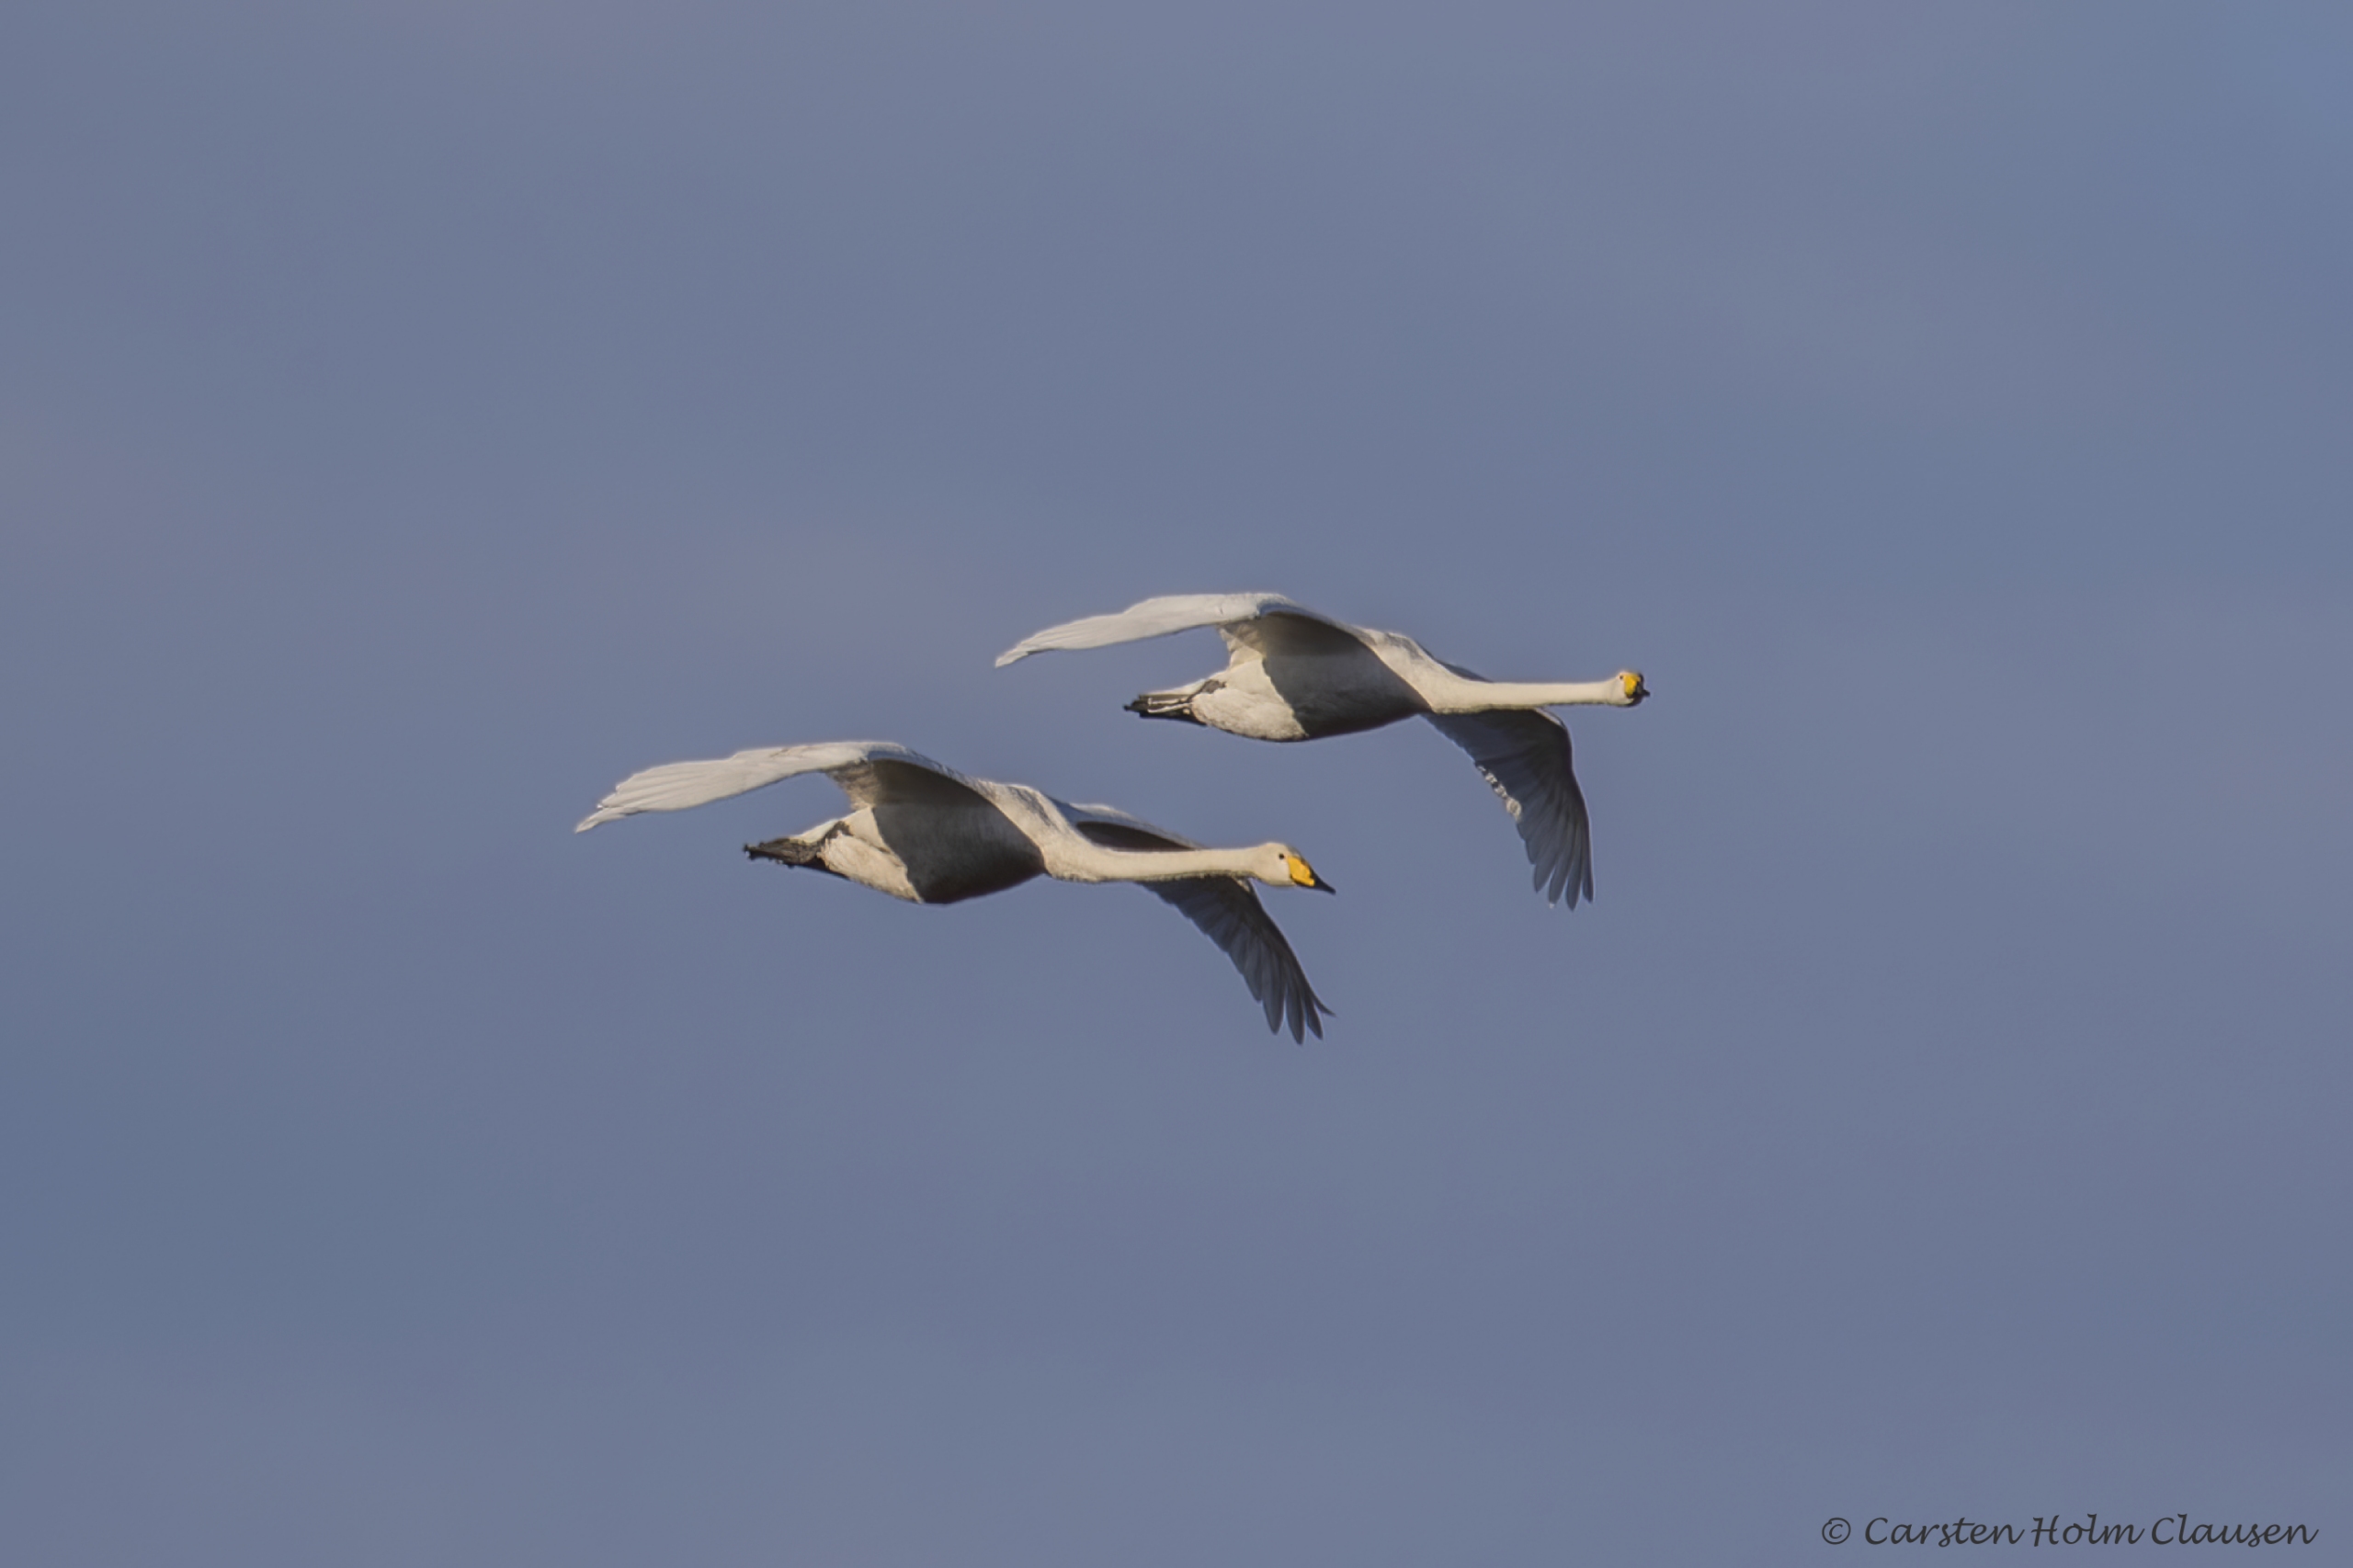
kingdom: Animalia
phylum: Chordata
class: Aves
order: Anseriformes
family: Anatidae
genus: Cygnus
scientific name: Cygnus cygnus
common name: Sangsvane
